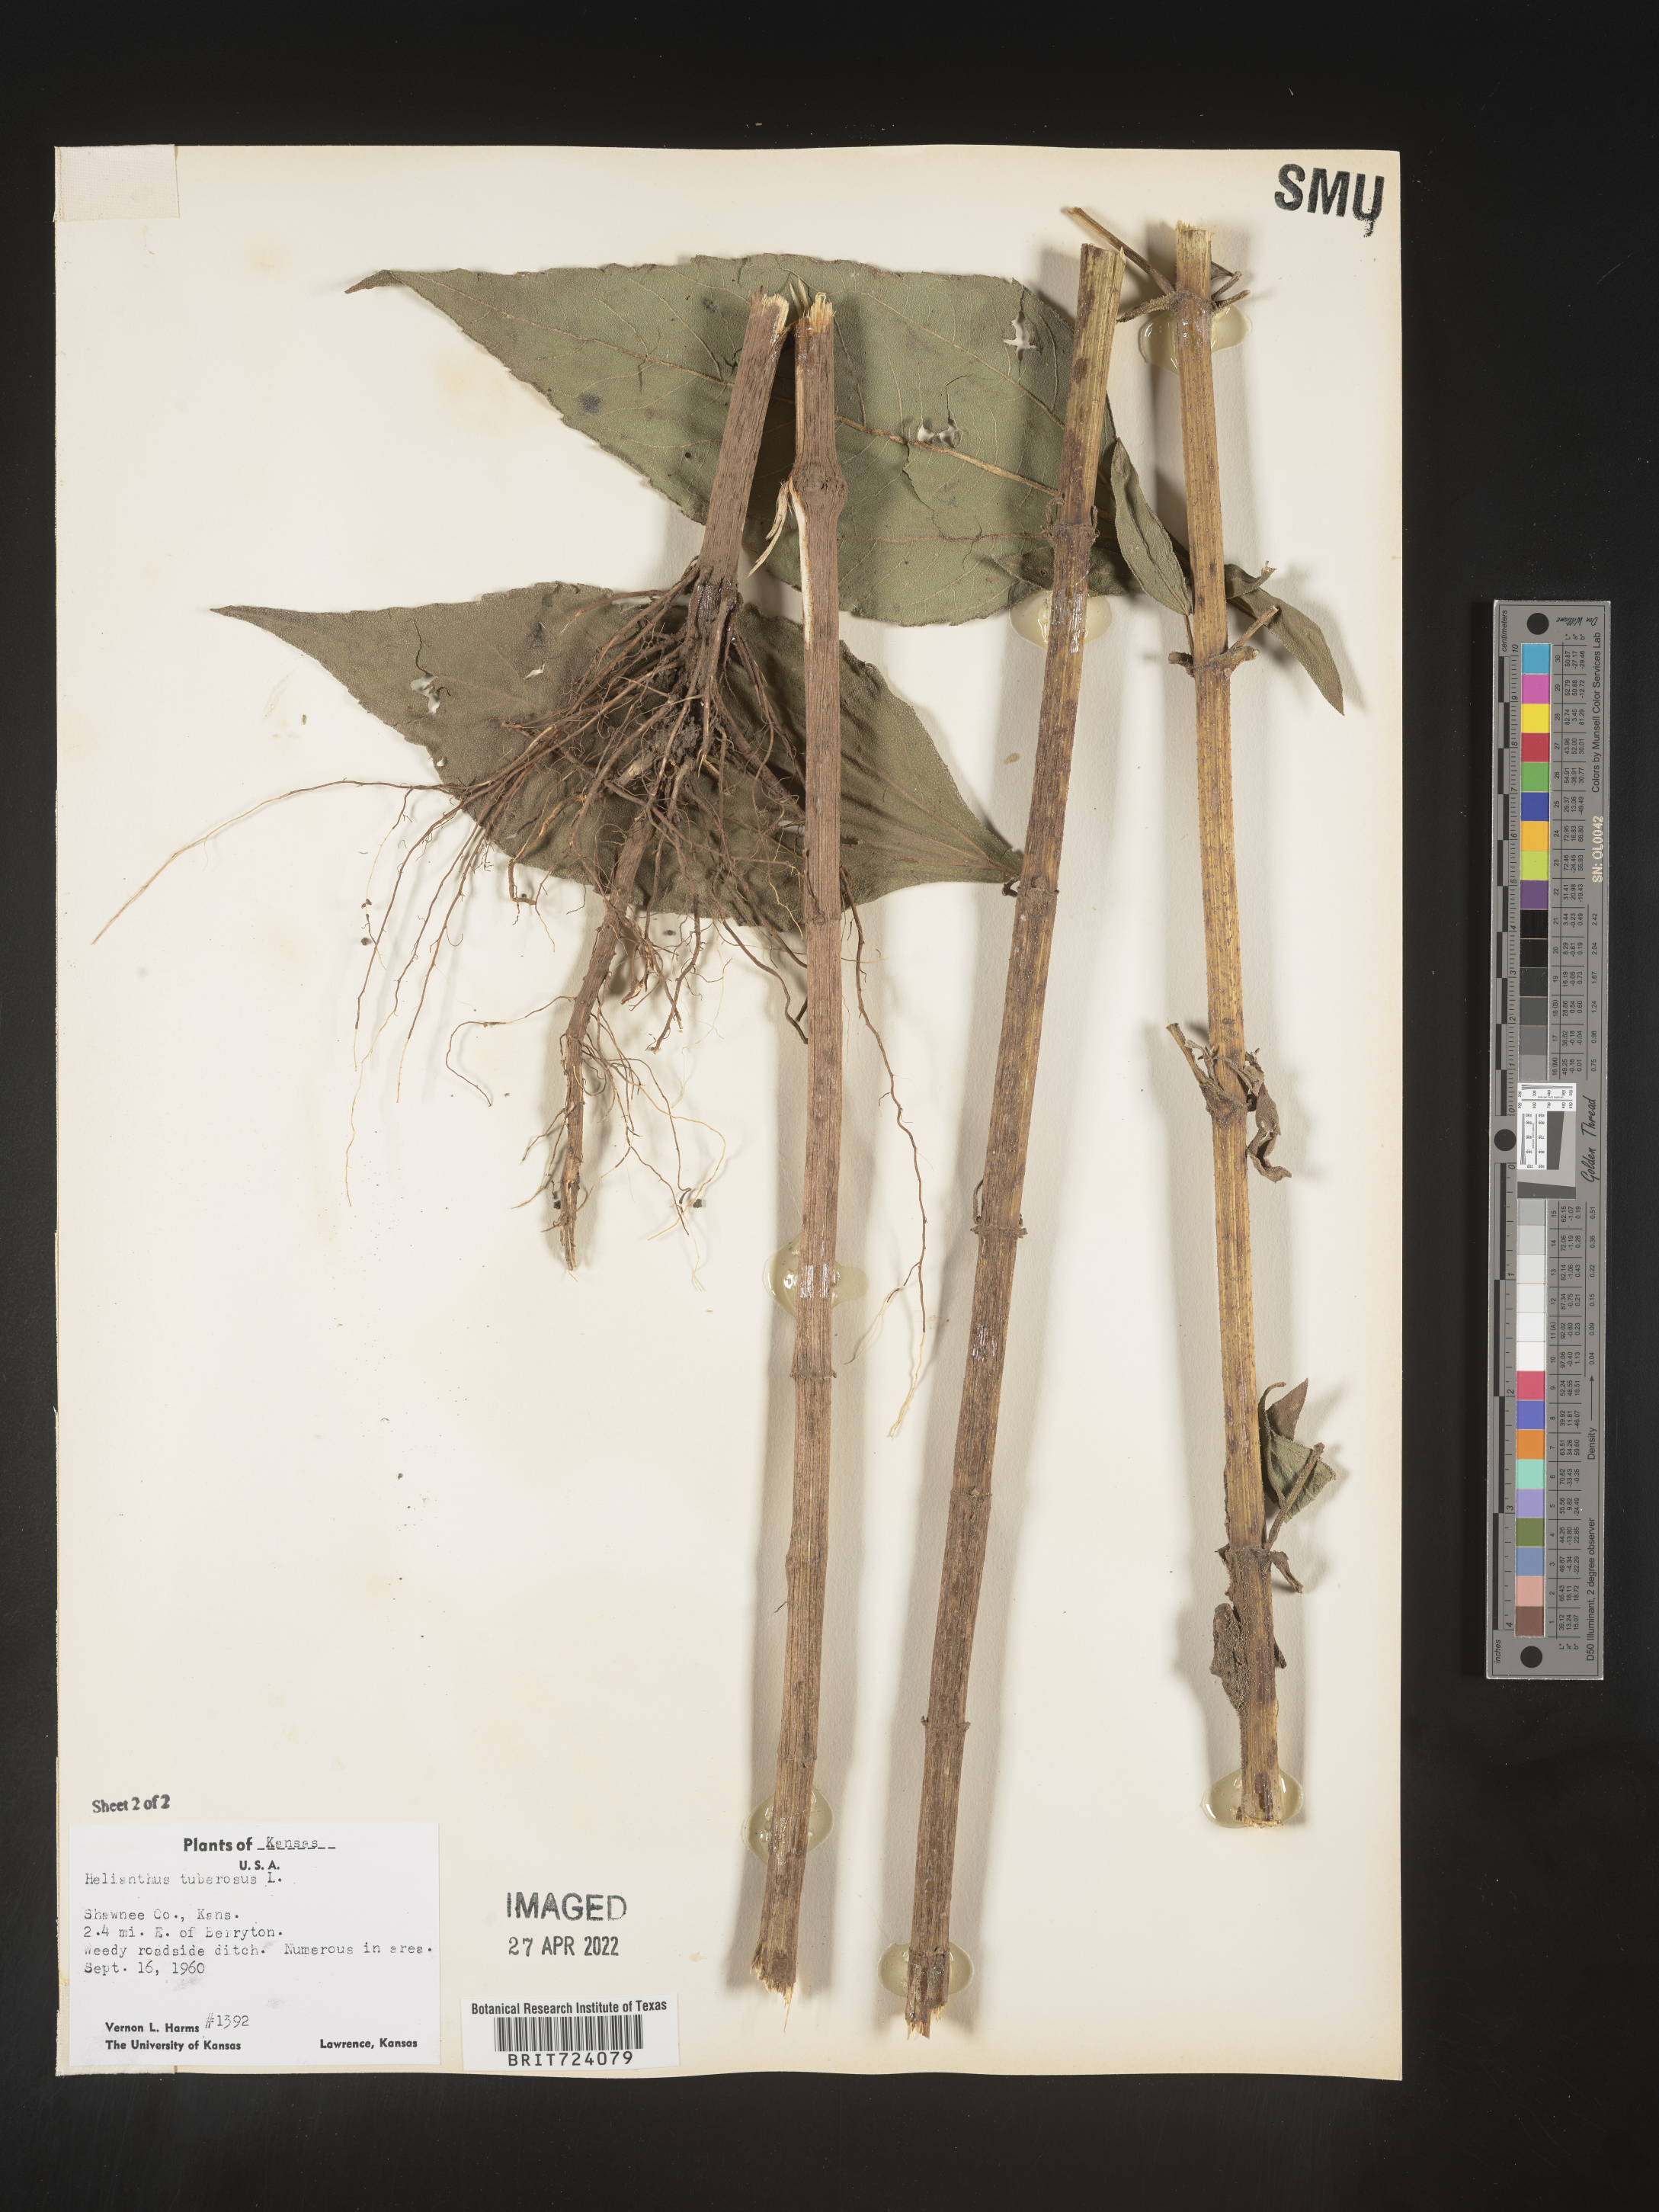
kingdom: Plantae
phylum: Tracheophyta
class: Magnoliopsida
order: Asterales
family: Asteraceae
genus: Helianthus
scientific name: Helianthus tuberosus
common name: Jerusalem artichoke
